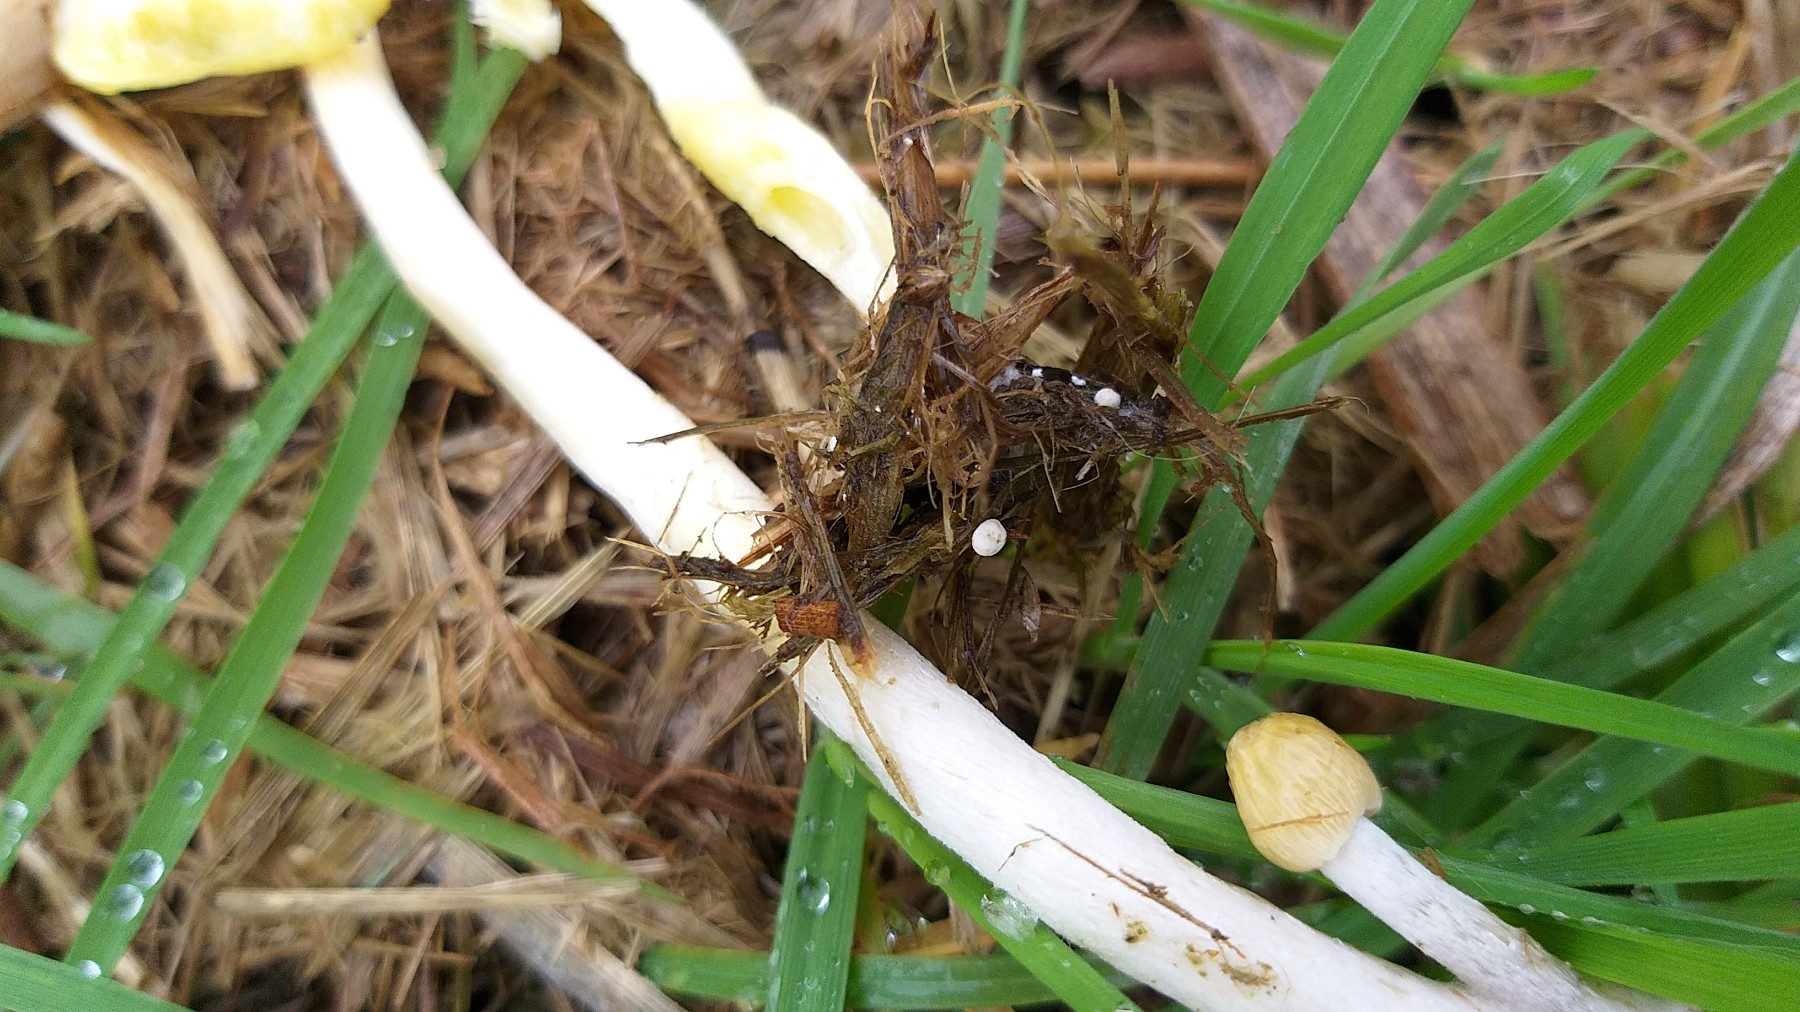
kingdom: Fungi
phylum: Basidiomycota
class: Agaricomycetes
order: Agaricales
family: Bolbitiaceae
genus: Bolbitius
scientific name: Bolbitius titubans
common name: almindelig gulhat
